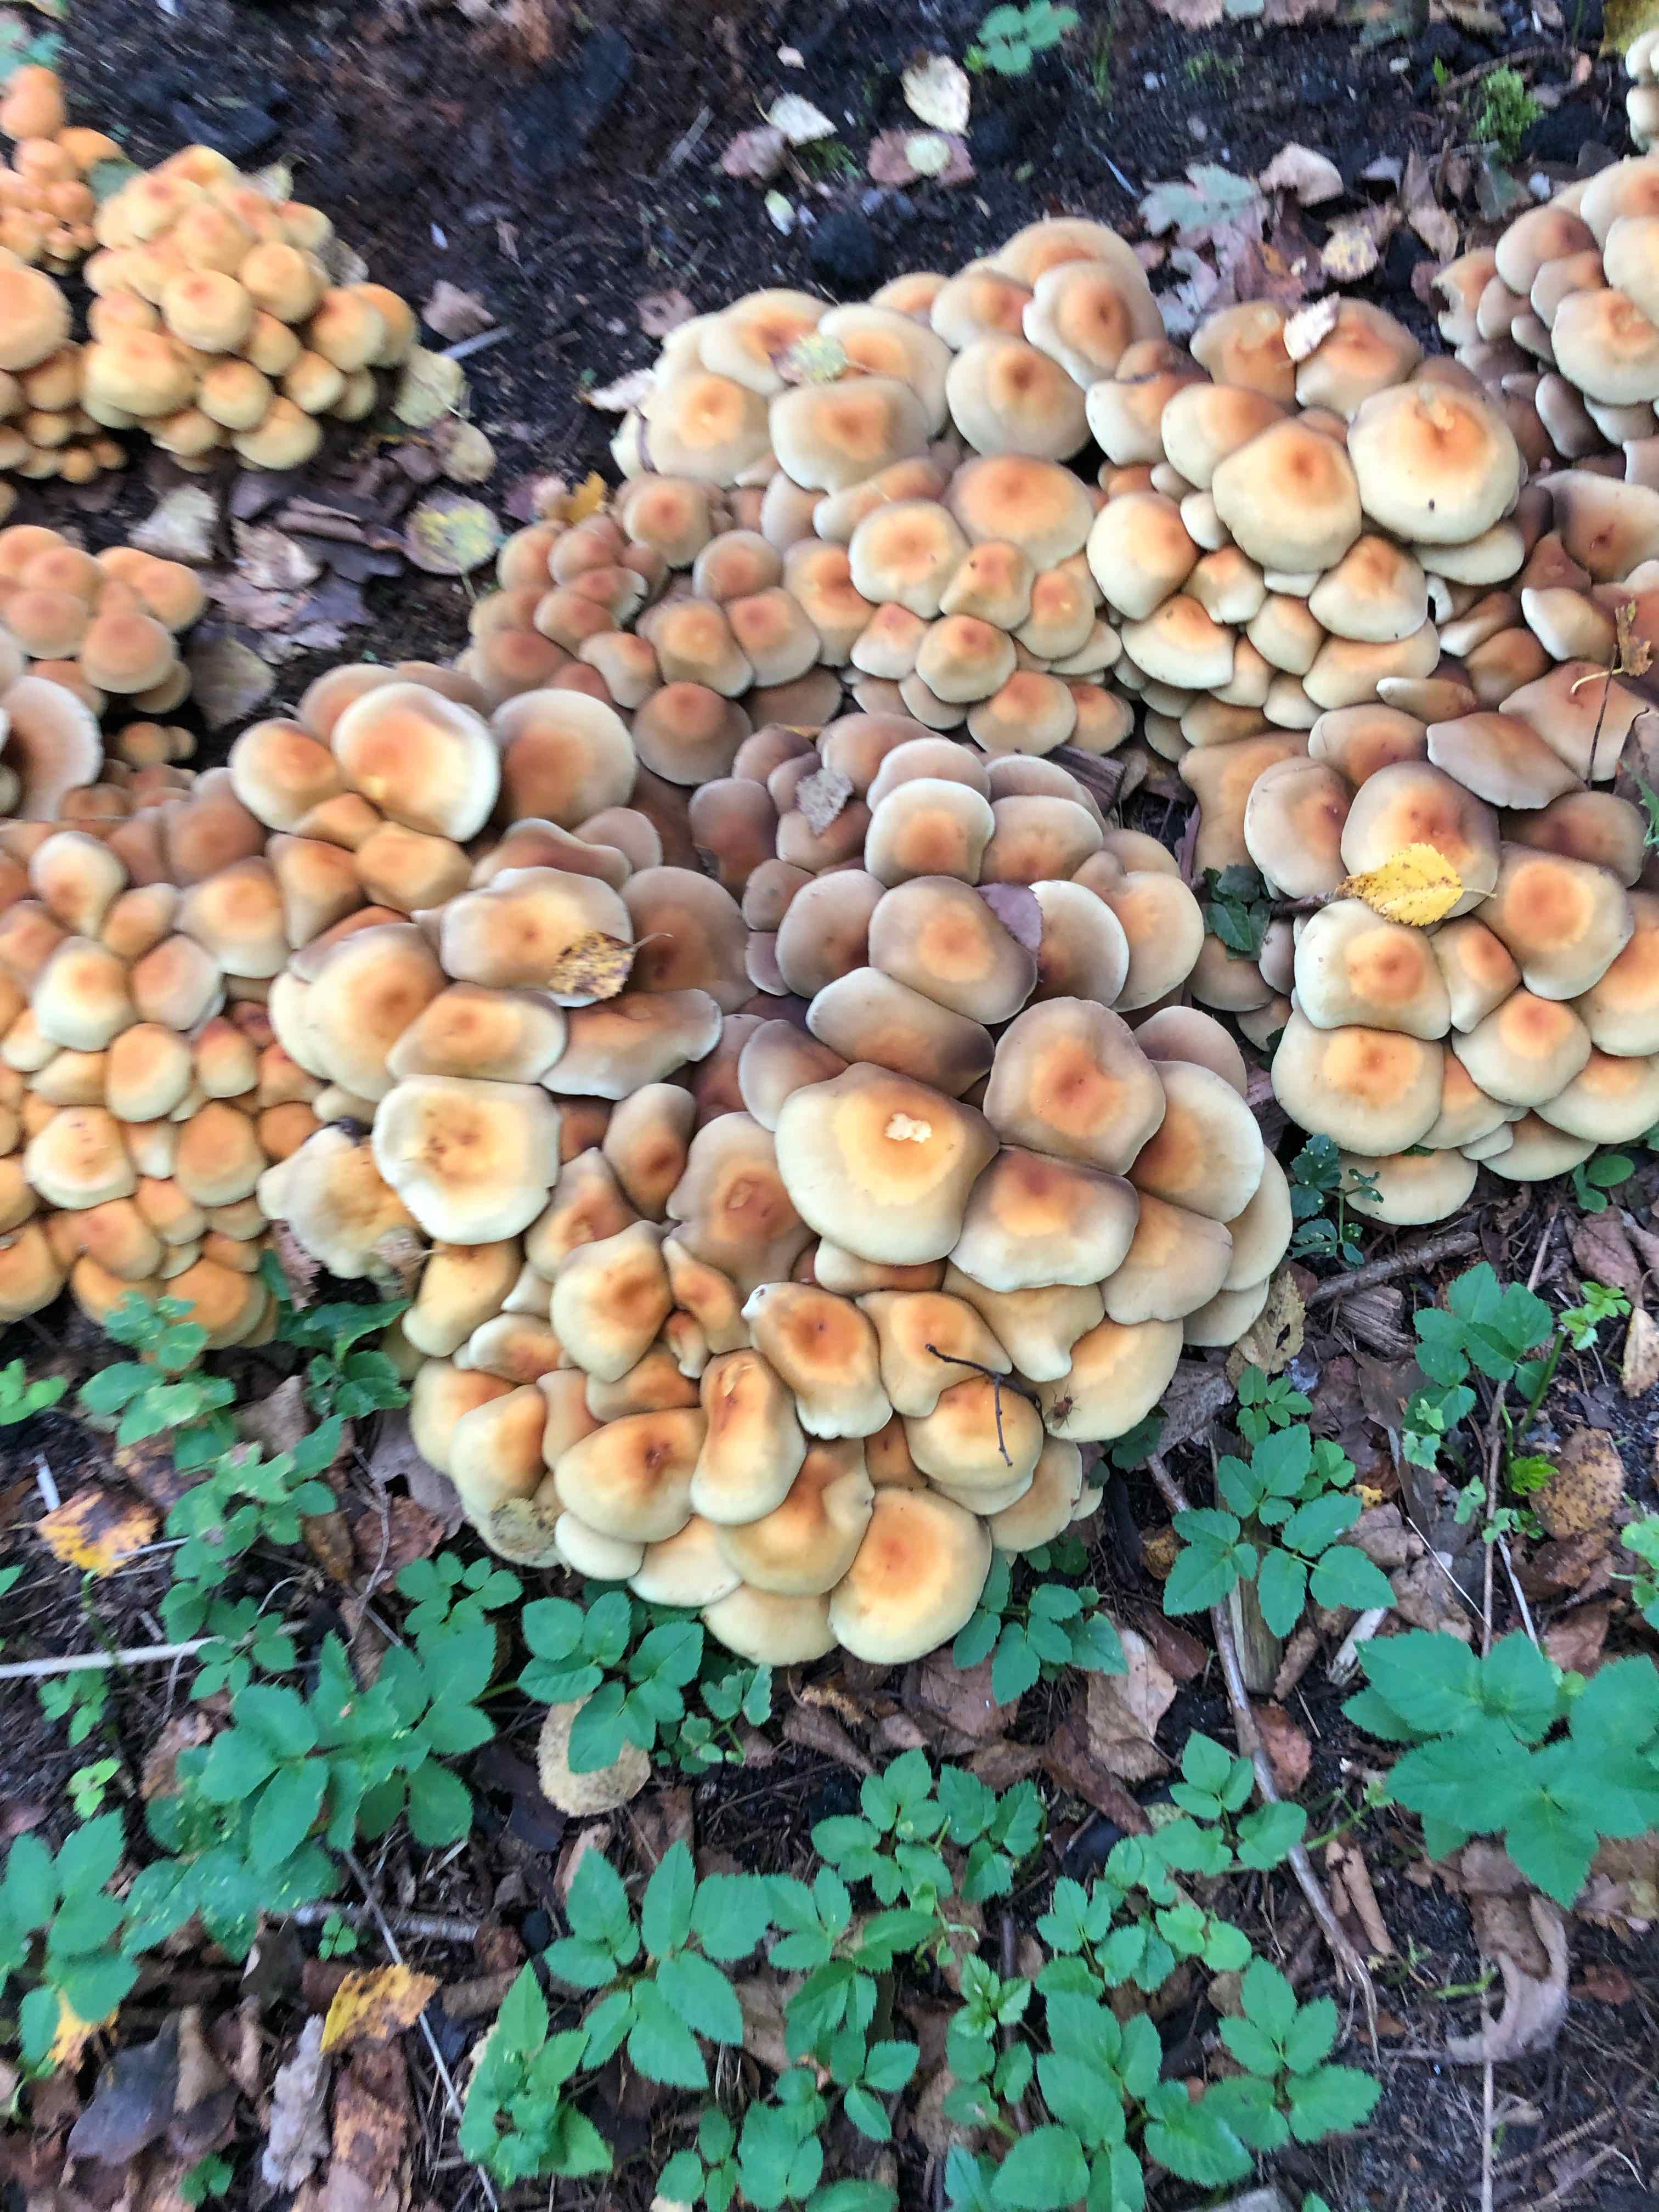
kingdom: Fungi
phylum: Basidiomycota
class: Agaricomycetes
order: Agaricales
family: Strophariaceae
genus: Hypholoma
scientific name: Hypholoma fasciculare
